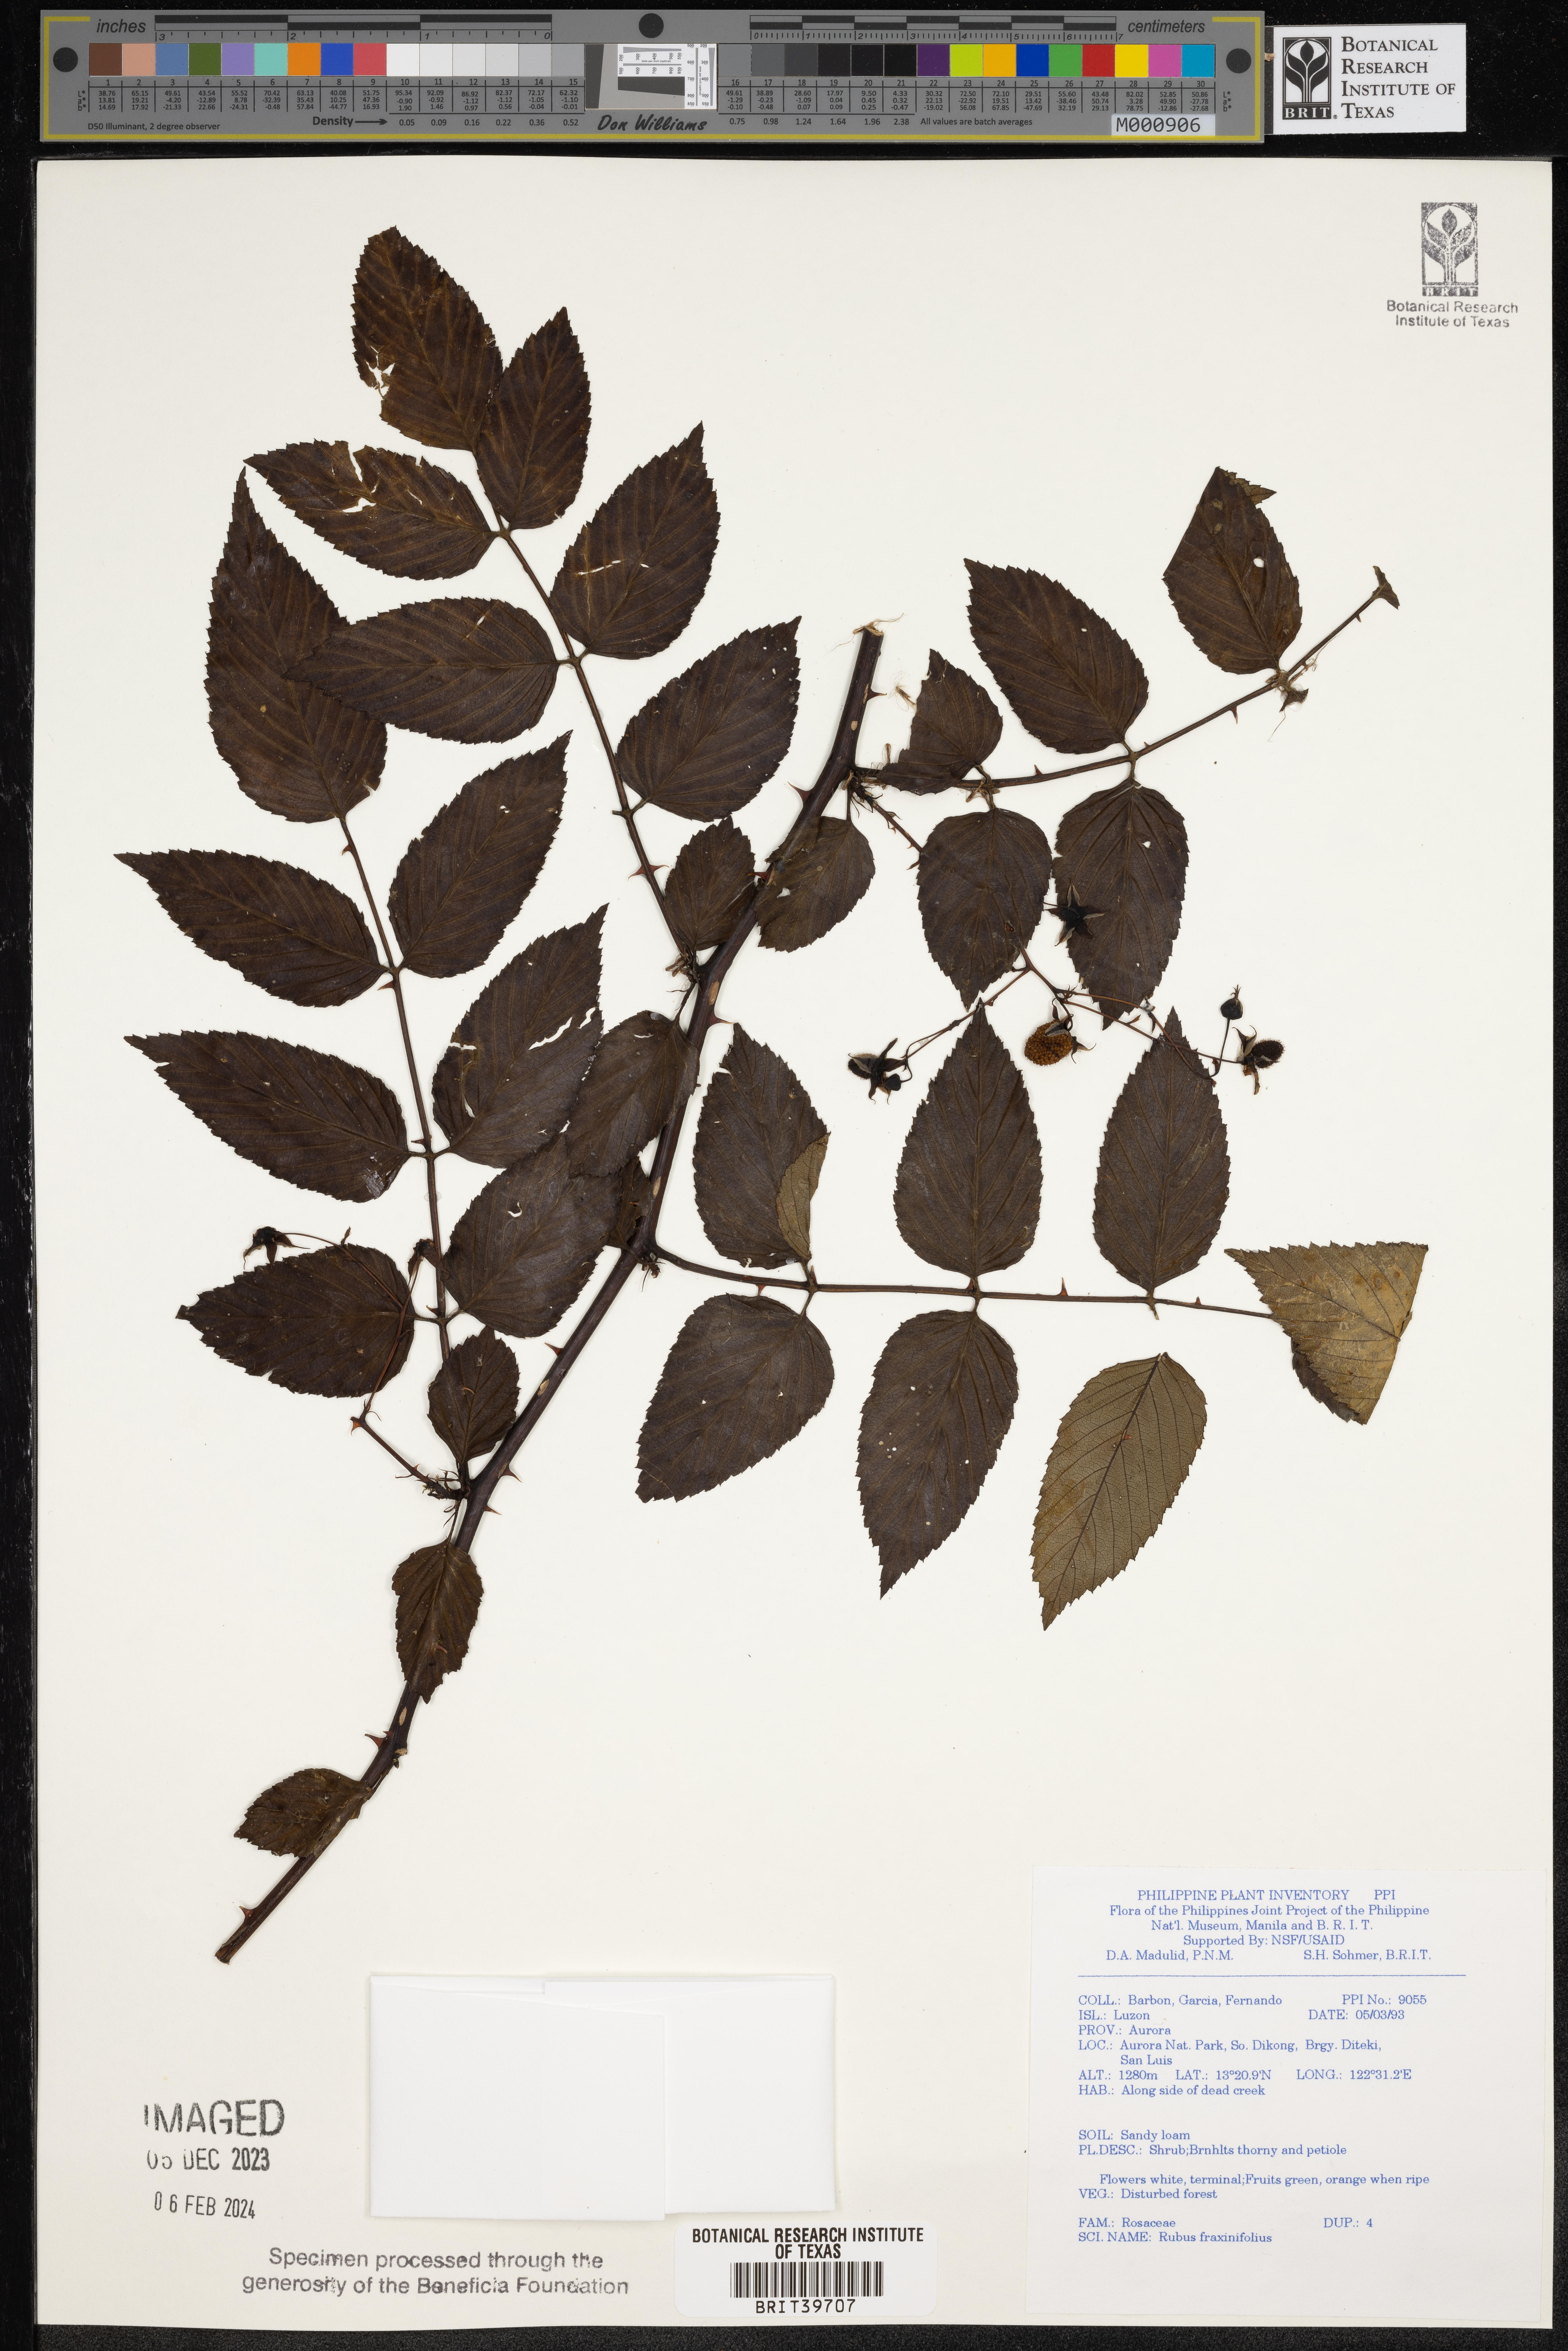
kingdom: Plantae
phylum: Tracheophyta
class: Magnoliopsida
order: Rosales
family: Rosaceae
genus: Rubus
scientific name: Rubus fraxinifolius
